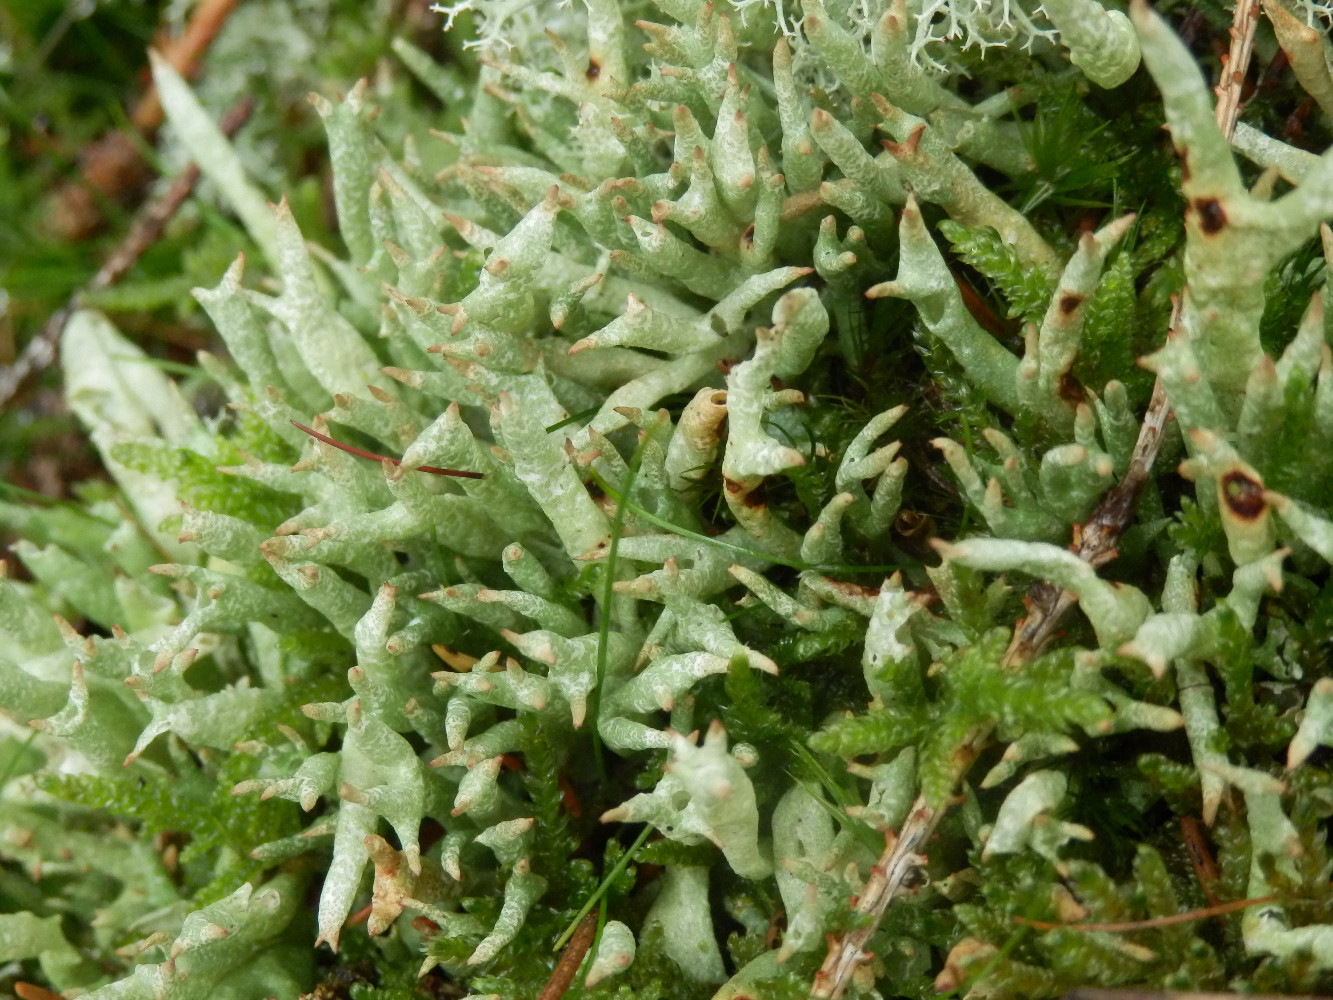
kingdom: Fungi
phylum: Ascomycota
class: Lecanoromycetes
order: Lecanorales
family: Cladoniaceae
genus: Cladonia
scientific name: Cladonia uncialis
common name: pigget bægerlav
